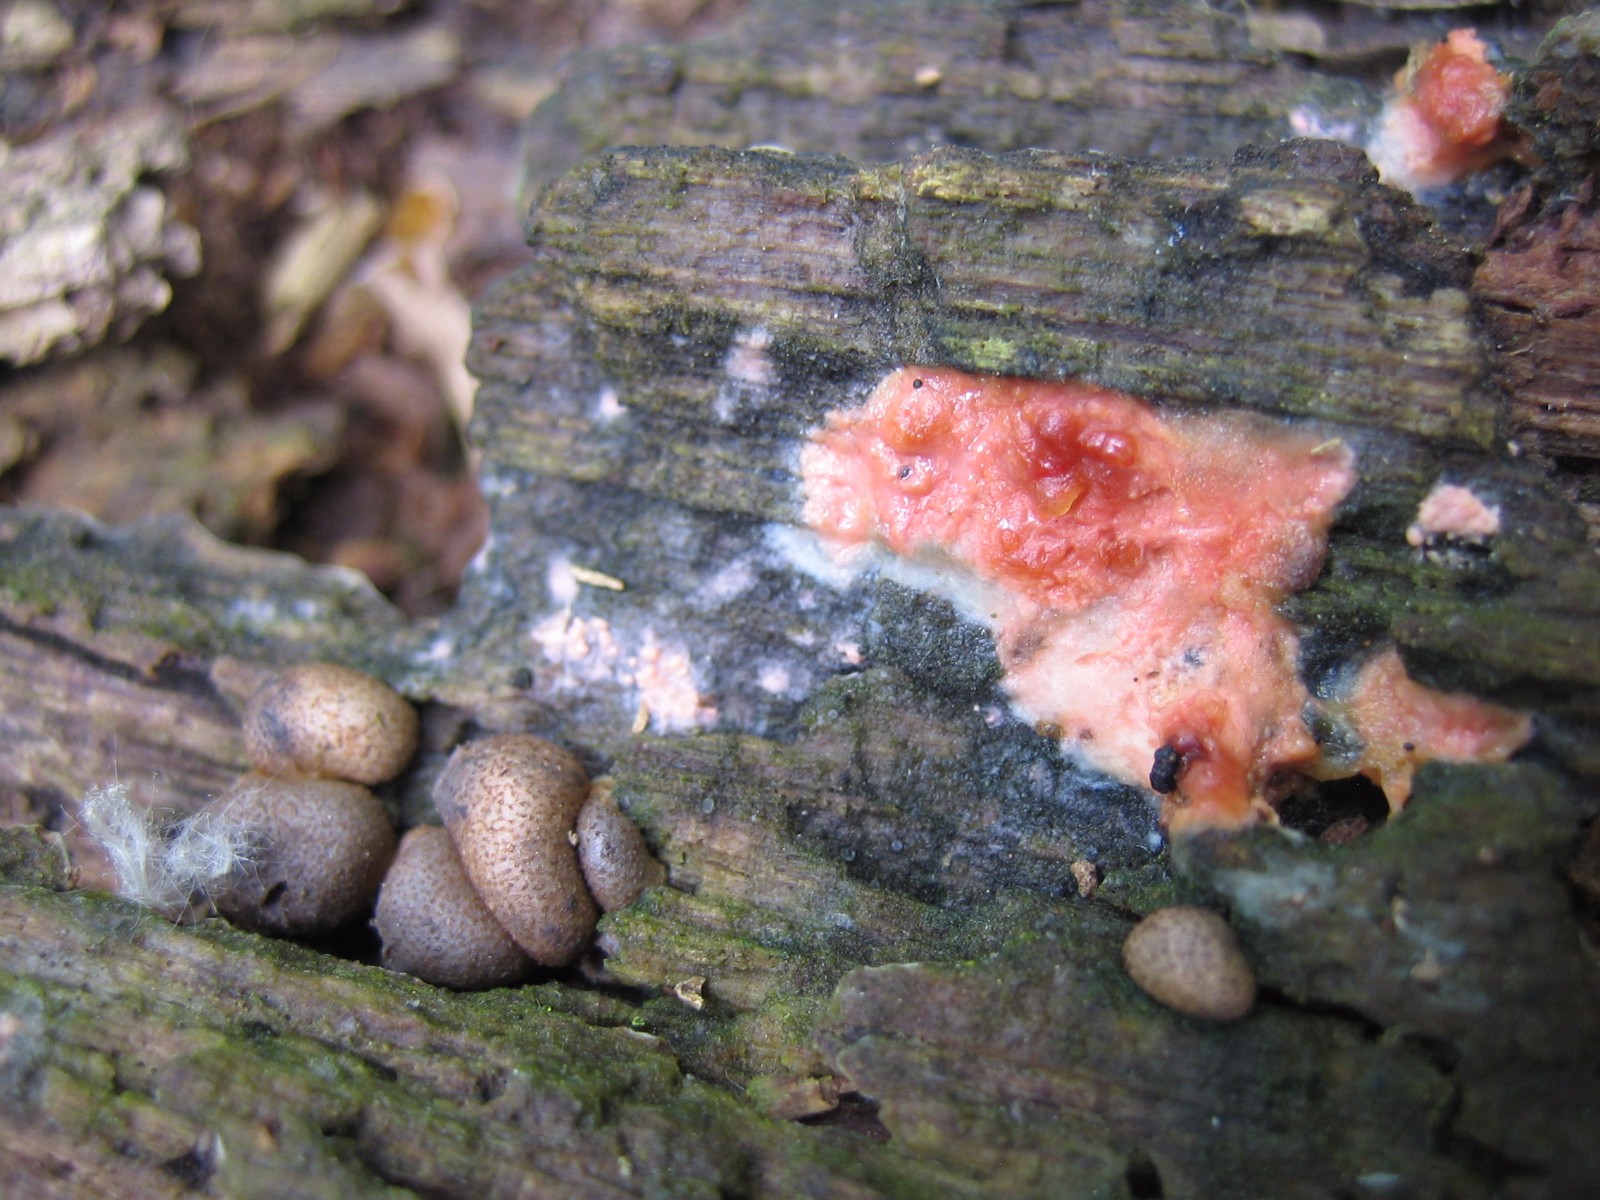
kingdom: Protozoa
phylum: Mycetozoa
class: Myxomycetes
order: Cribrariales
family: Tubiferaceae
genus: Lycogala
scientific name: Lycogala epidendrum
